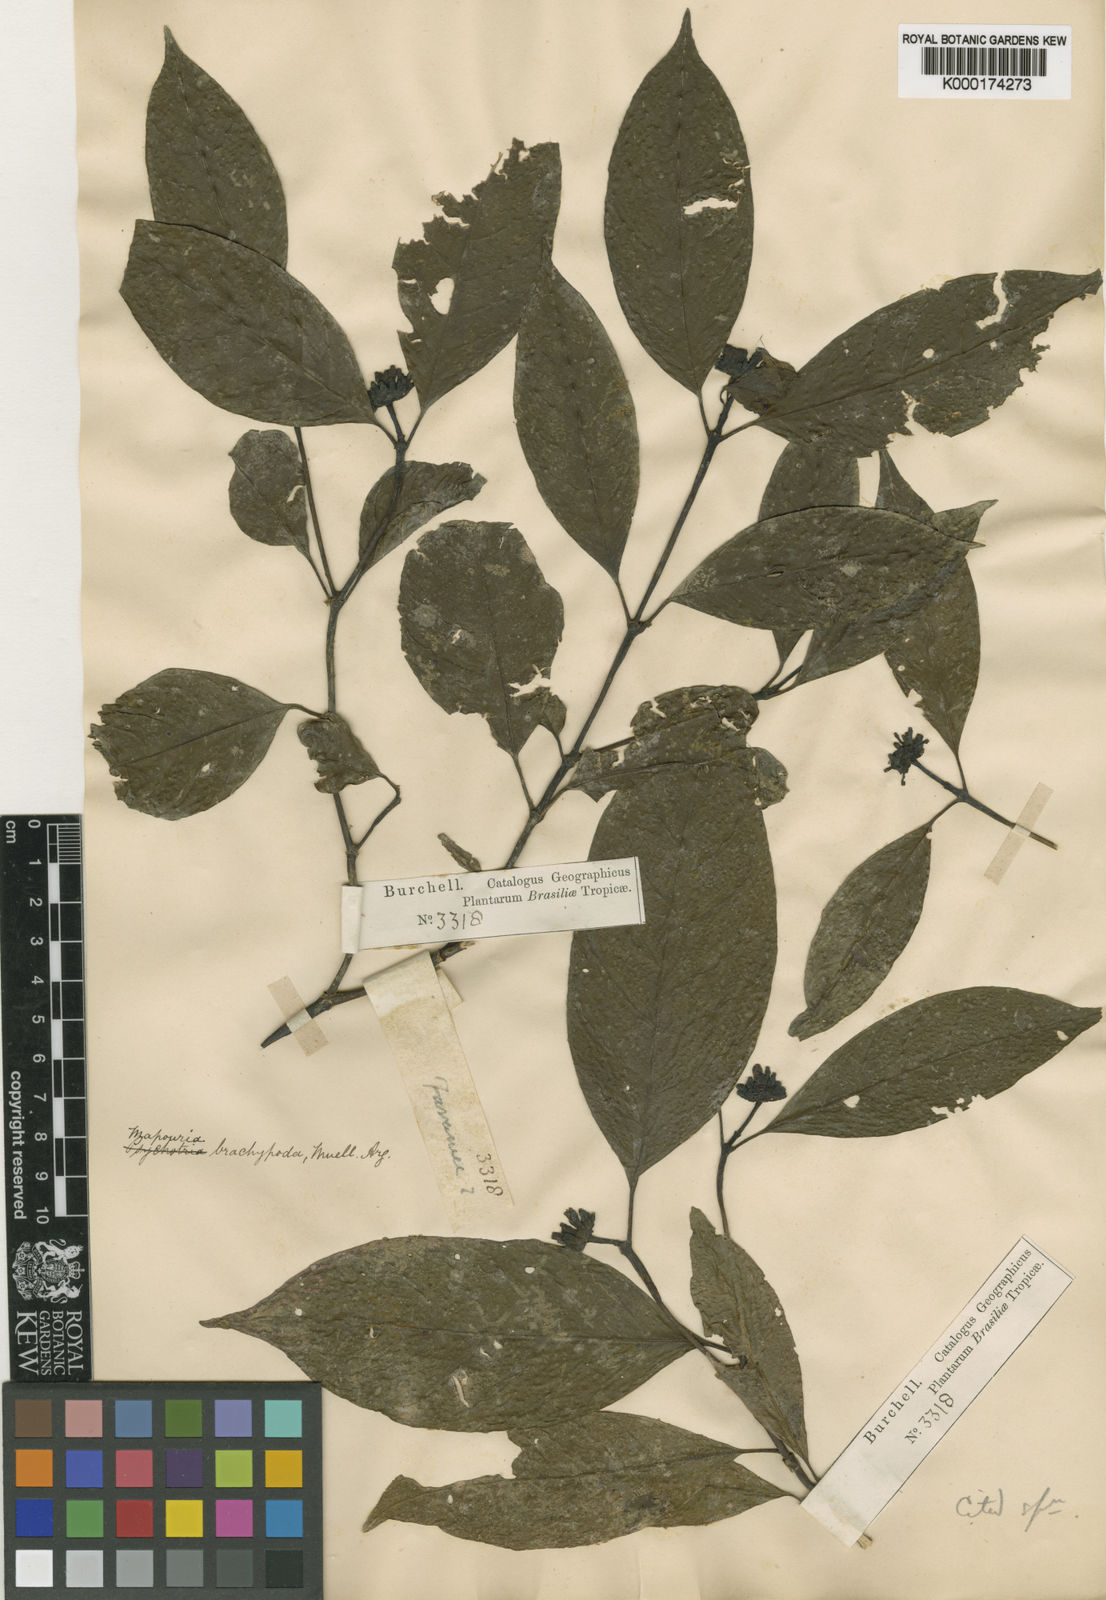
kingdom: Plantae
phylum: Tracheophyta
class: Magnoliopsida
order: Gentianales
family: Rubiaceae
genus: Psychotria
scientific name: Psychotria
